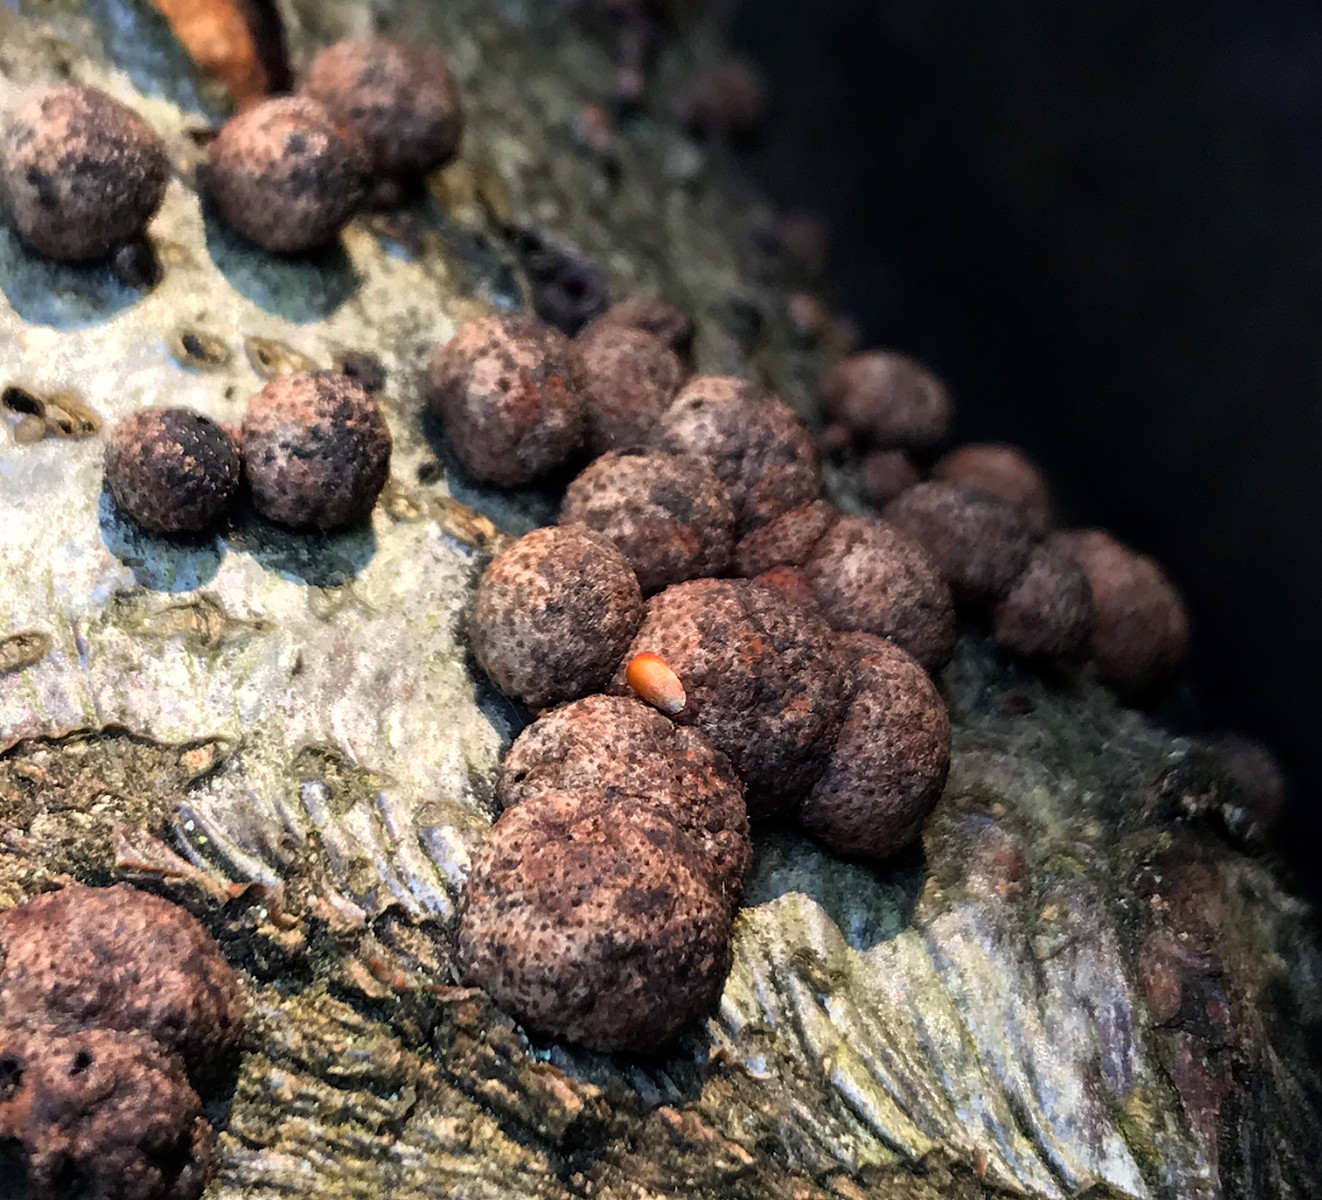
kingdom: Fungi
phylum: Ascomycota
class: Sordariomycetes
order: Xylariales
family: Hypoxylaceae
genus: Hypoxylon
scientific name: Hypoxylon fragiforme
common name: kuljordbær
